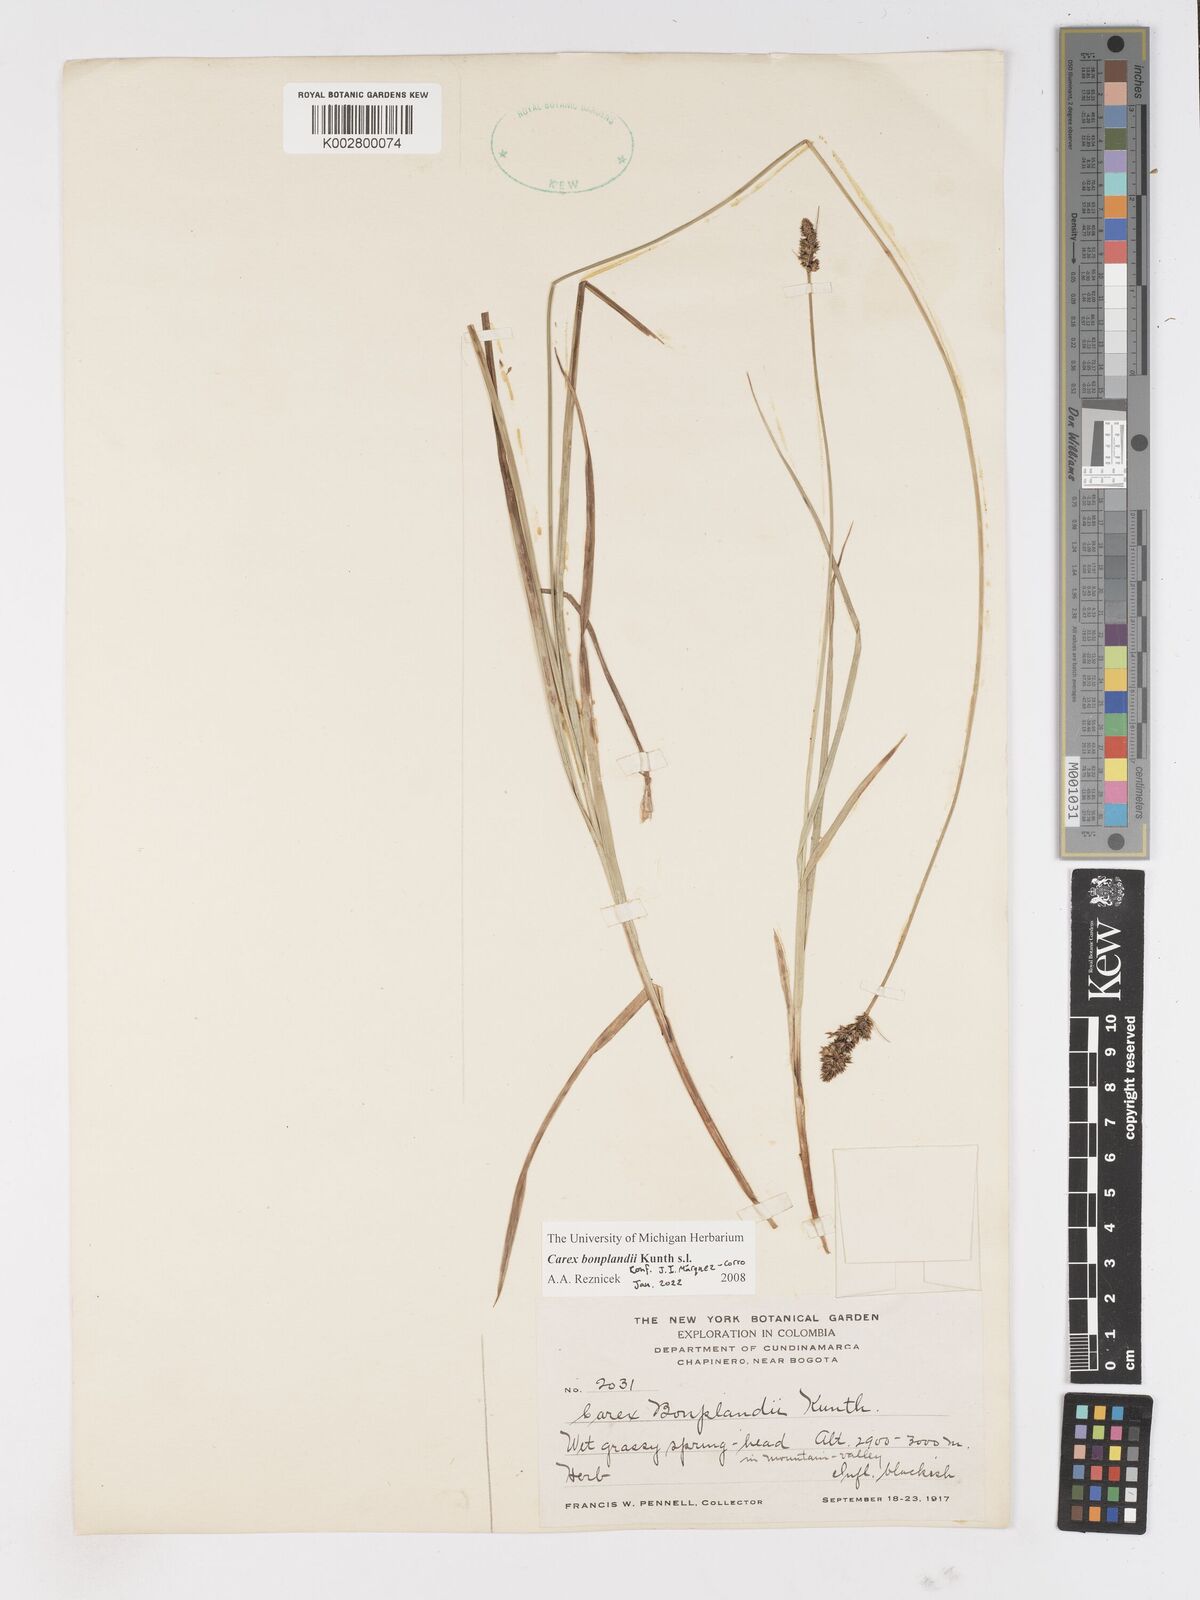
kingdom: Plantae
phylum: Tracheophyta
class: Liliopsida
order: Poales
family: Cyperaceae
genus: Carex
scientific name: Carex bonplandii
